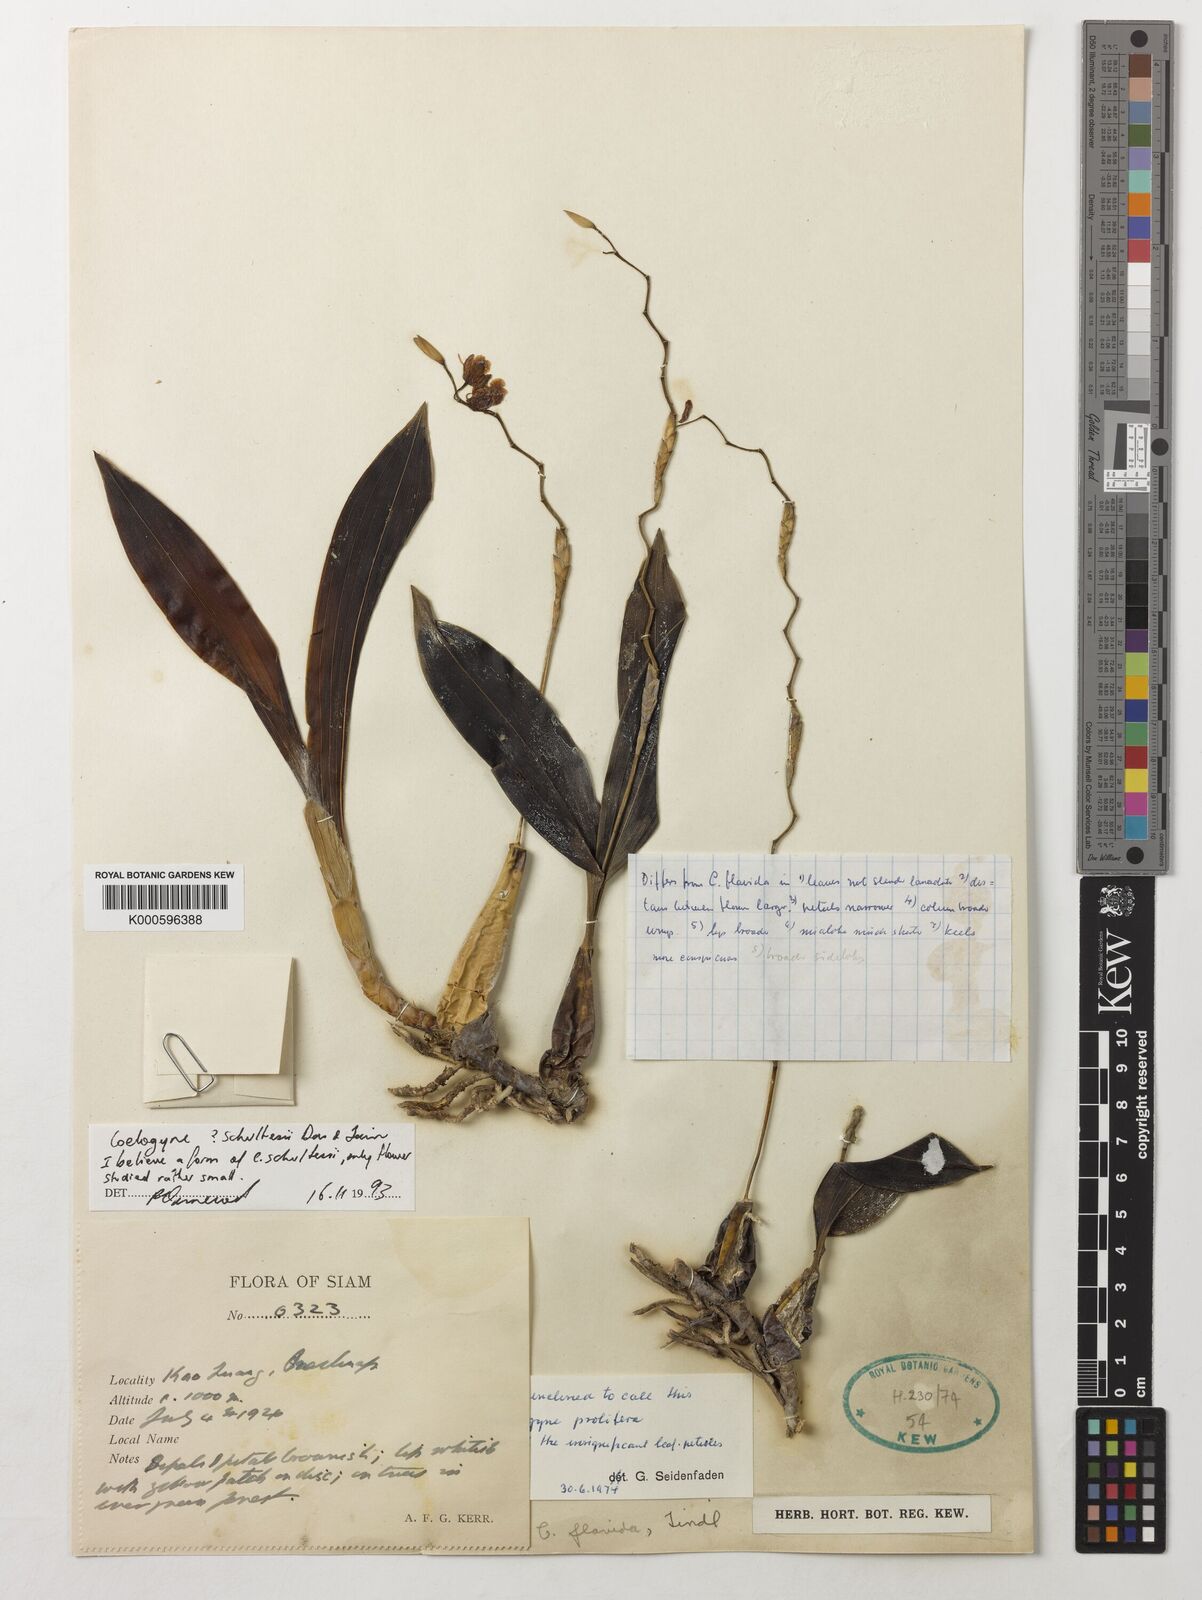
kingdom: Plantae
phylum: Tracheophyta
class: Liliopsida
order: Asparagales
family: Orchidaceae
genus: Coelogyne
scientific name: Coelogyne schultesii
